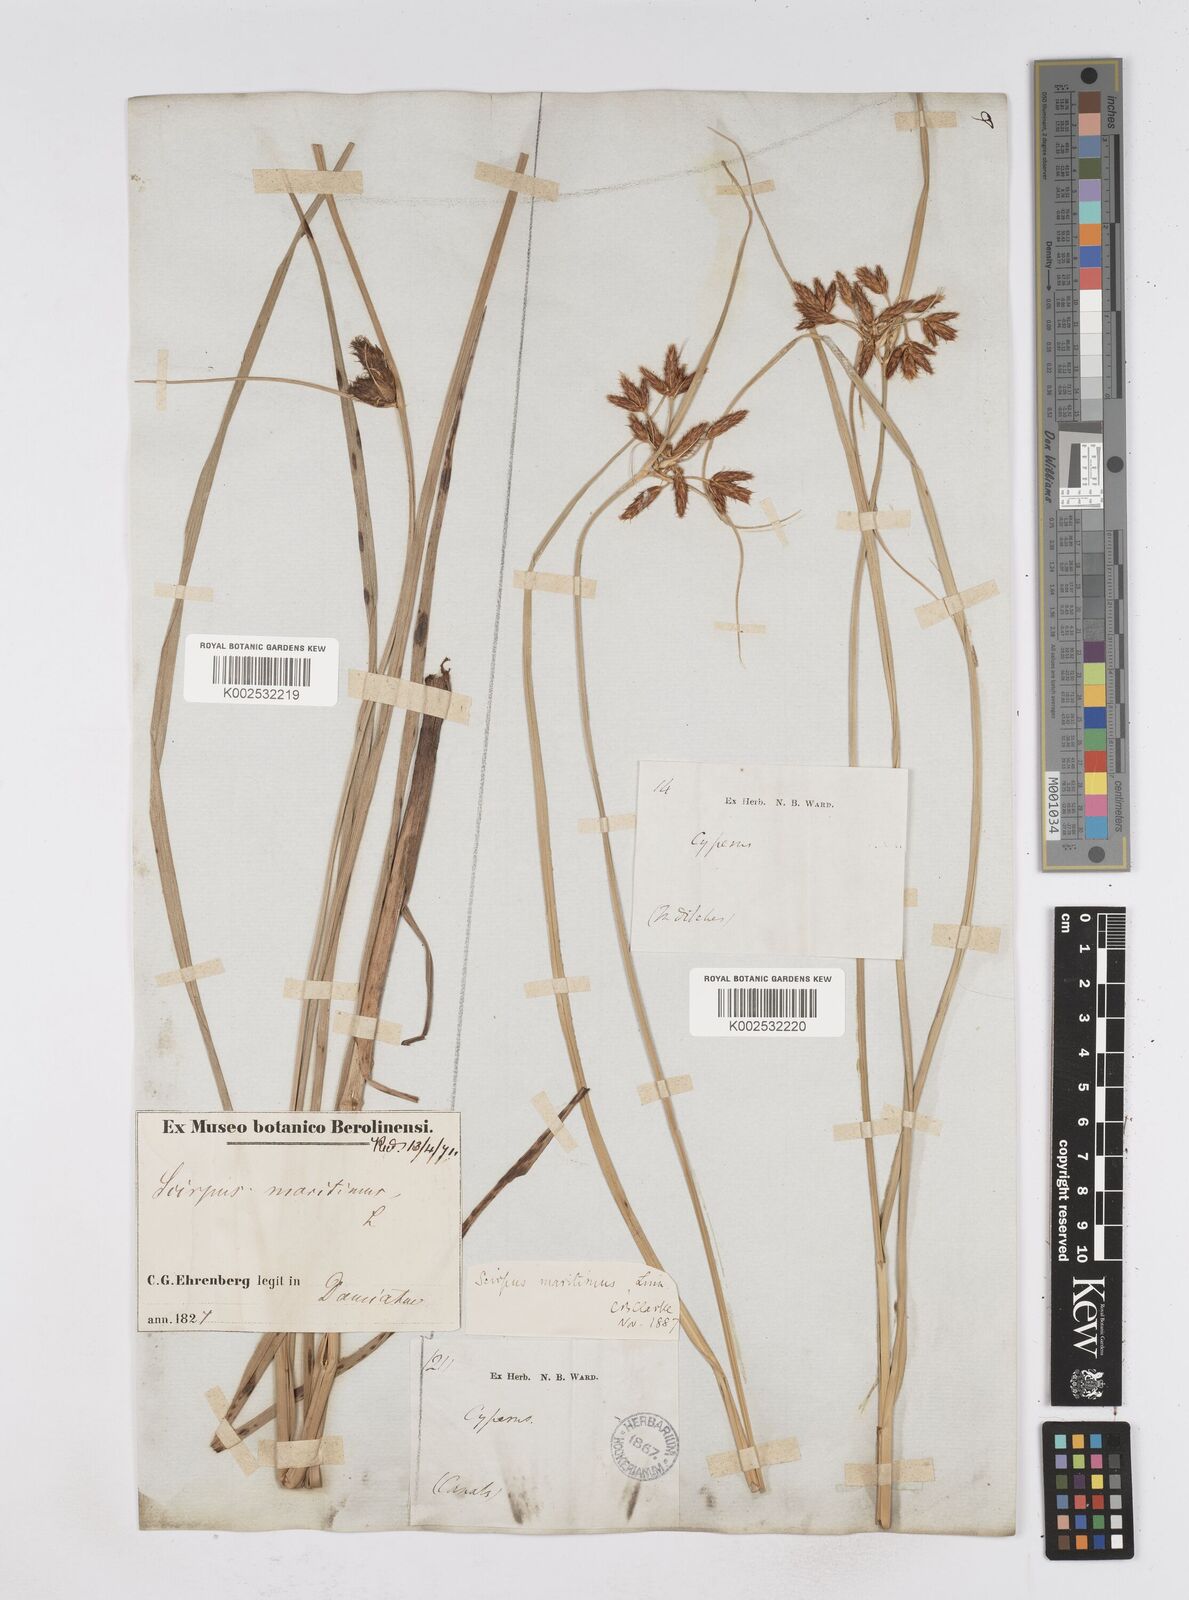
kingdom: Plantae
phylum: Tracheophyta
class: Liliopsida
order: Poales
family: Cyperaceae
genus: Bolboschoenus
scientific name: Bolboschoenus maritimus
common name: Sea club-rush
